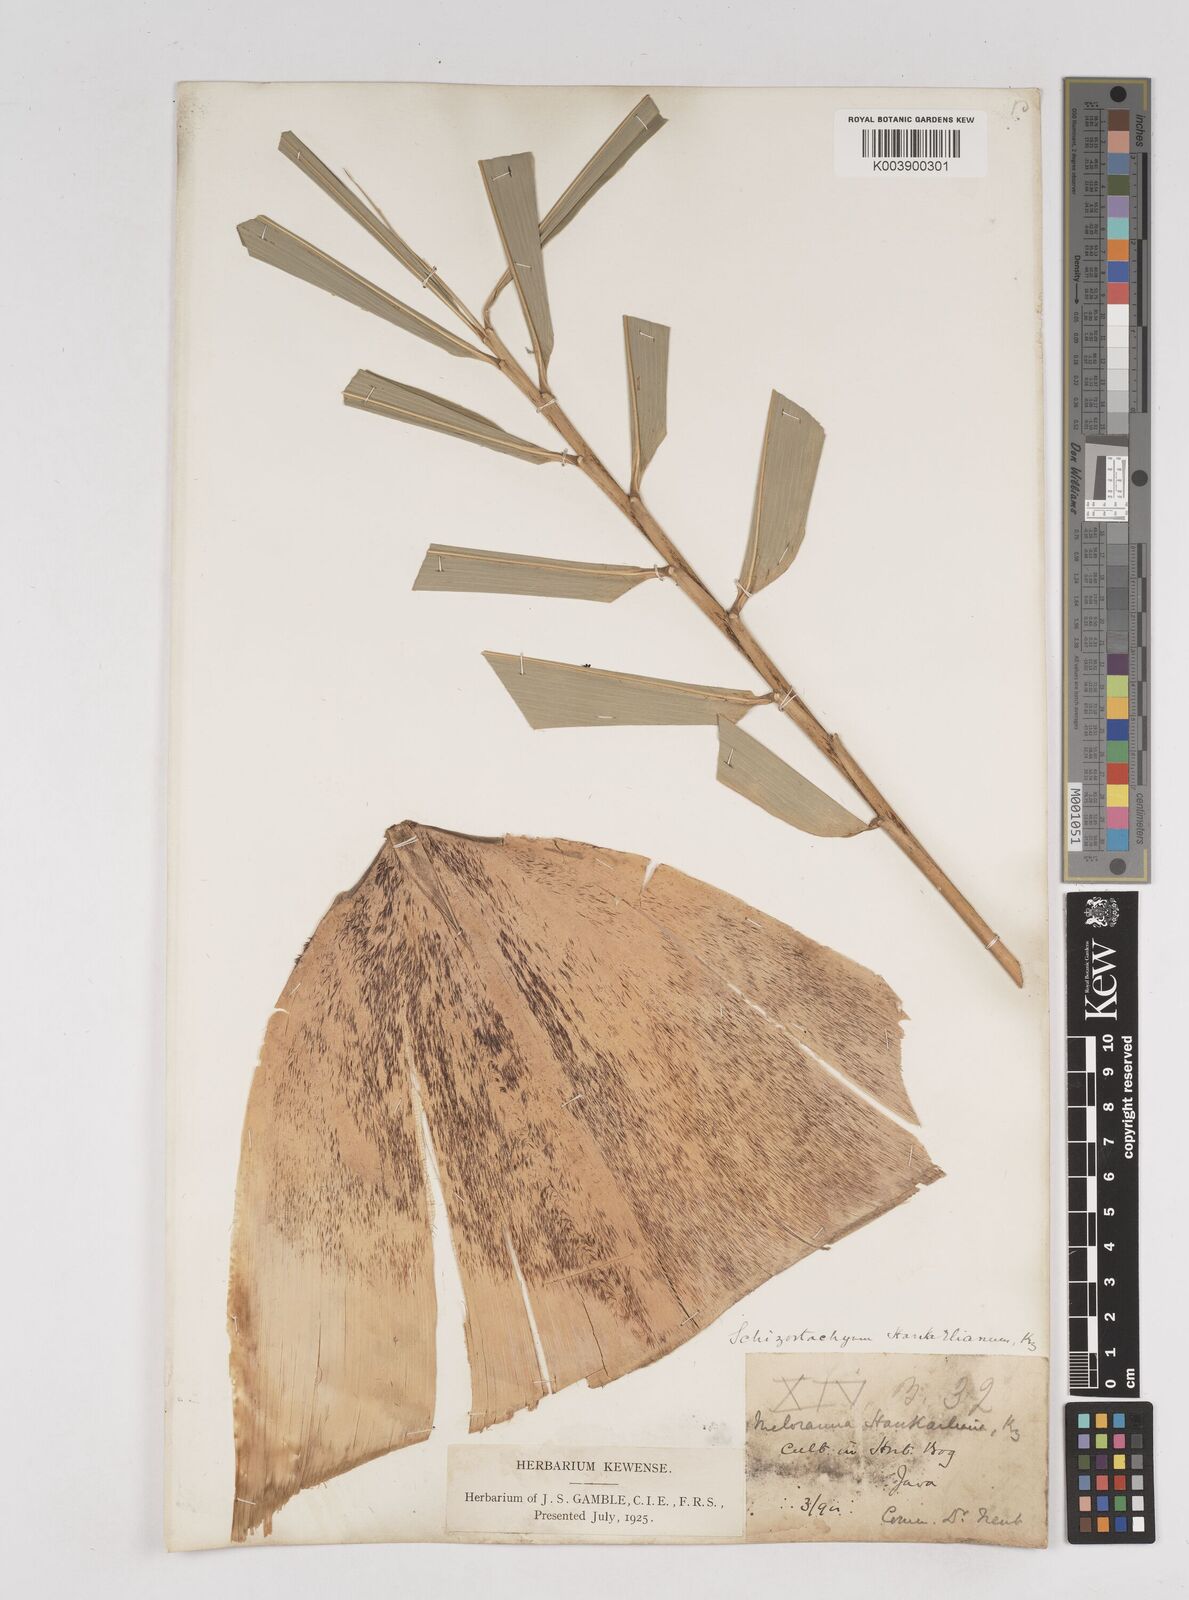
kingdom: Plantae
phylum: Tracheophyta
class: Liliopsida
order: Poales
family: Poaceae
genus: Gigantochloa
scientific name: Gigantochloa hasskarliana
